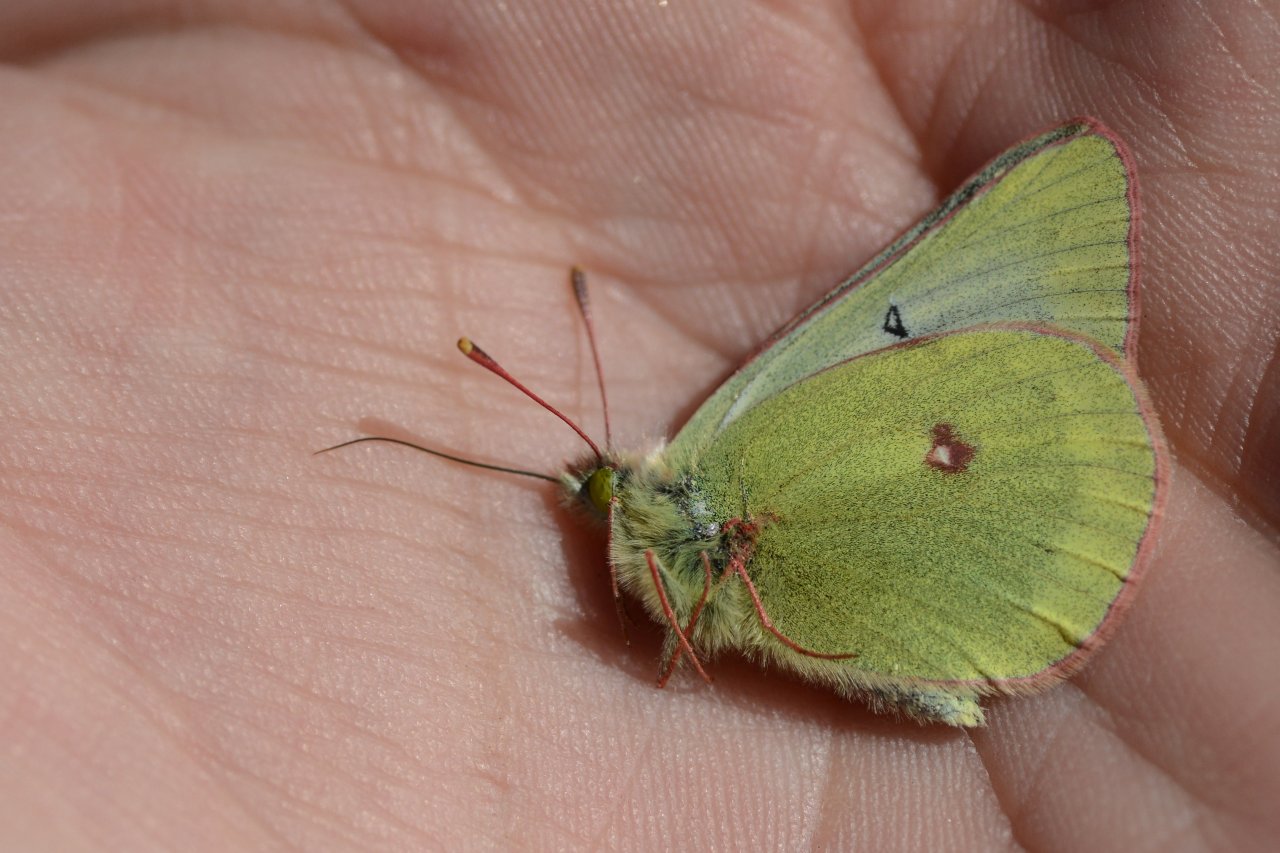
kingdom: Animalia
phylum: Arthropoda
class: Insecta
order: Lepidoptera
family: Pieridae
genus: Colias
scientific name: Colias nastes
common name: Labrador Sulphur
